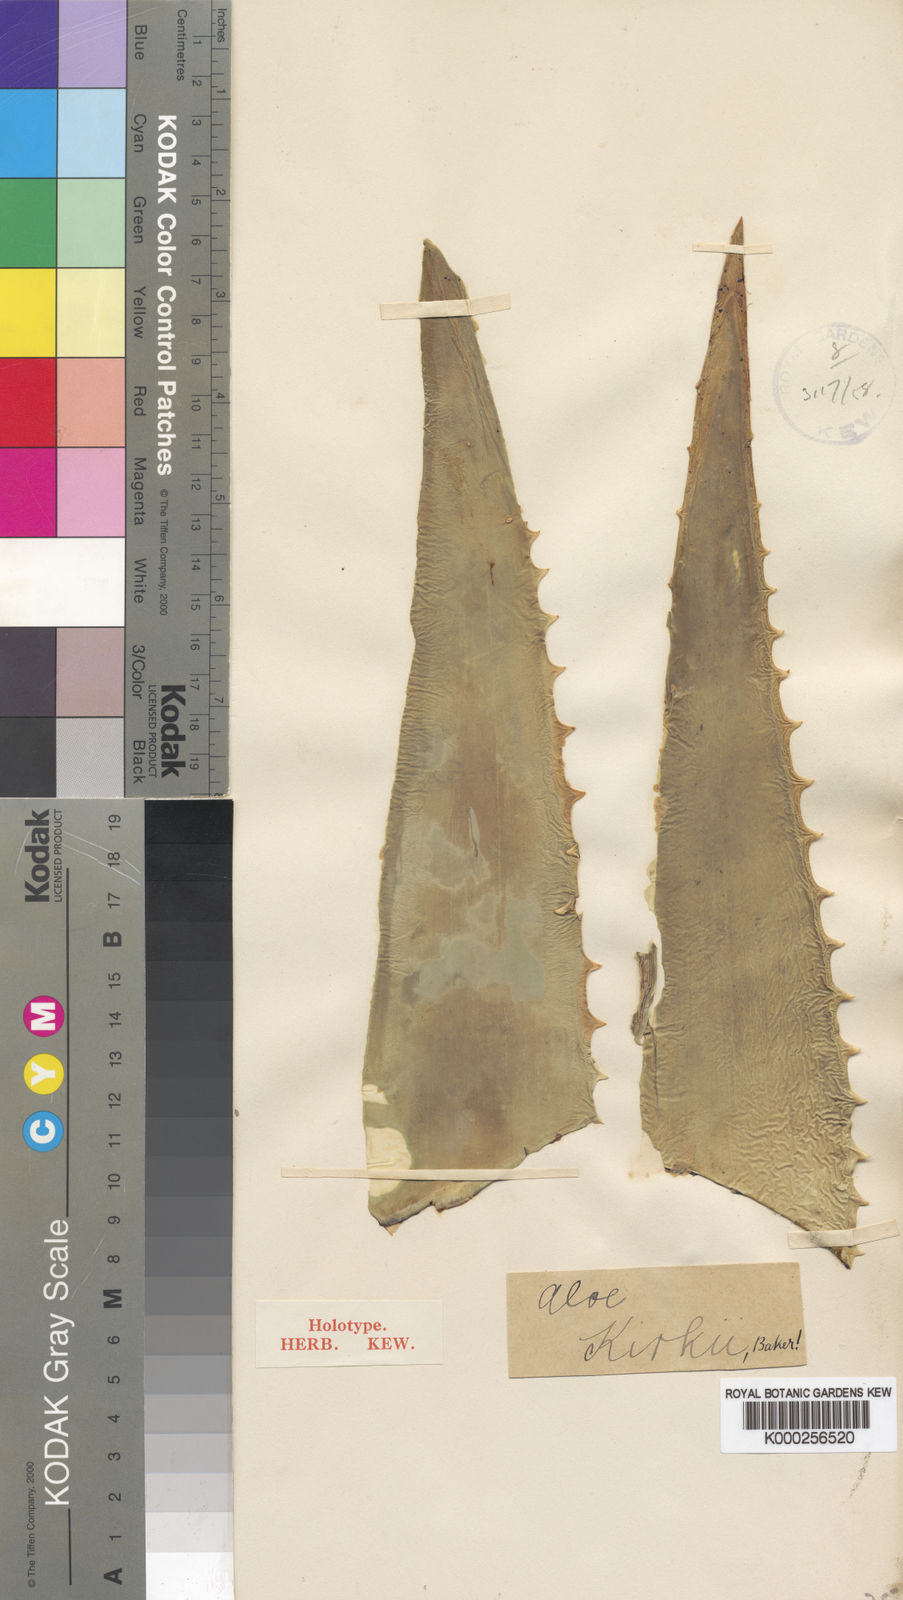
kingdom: Plantae
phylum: Tracheophyta
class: Liliopsida
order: Asparagales
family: Asphodelaceae
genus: Aloe
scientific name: Aloe kirkii
